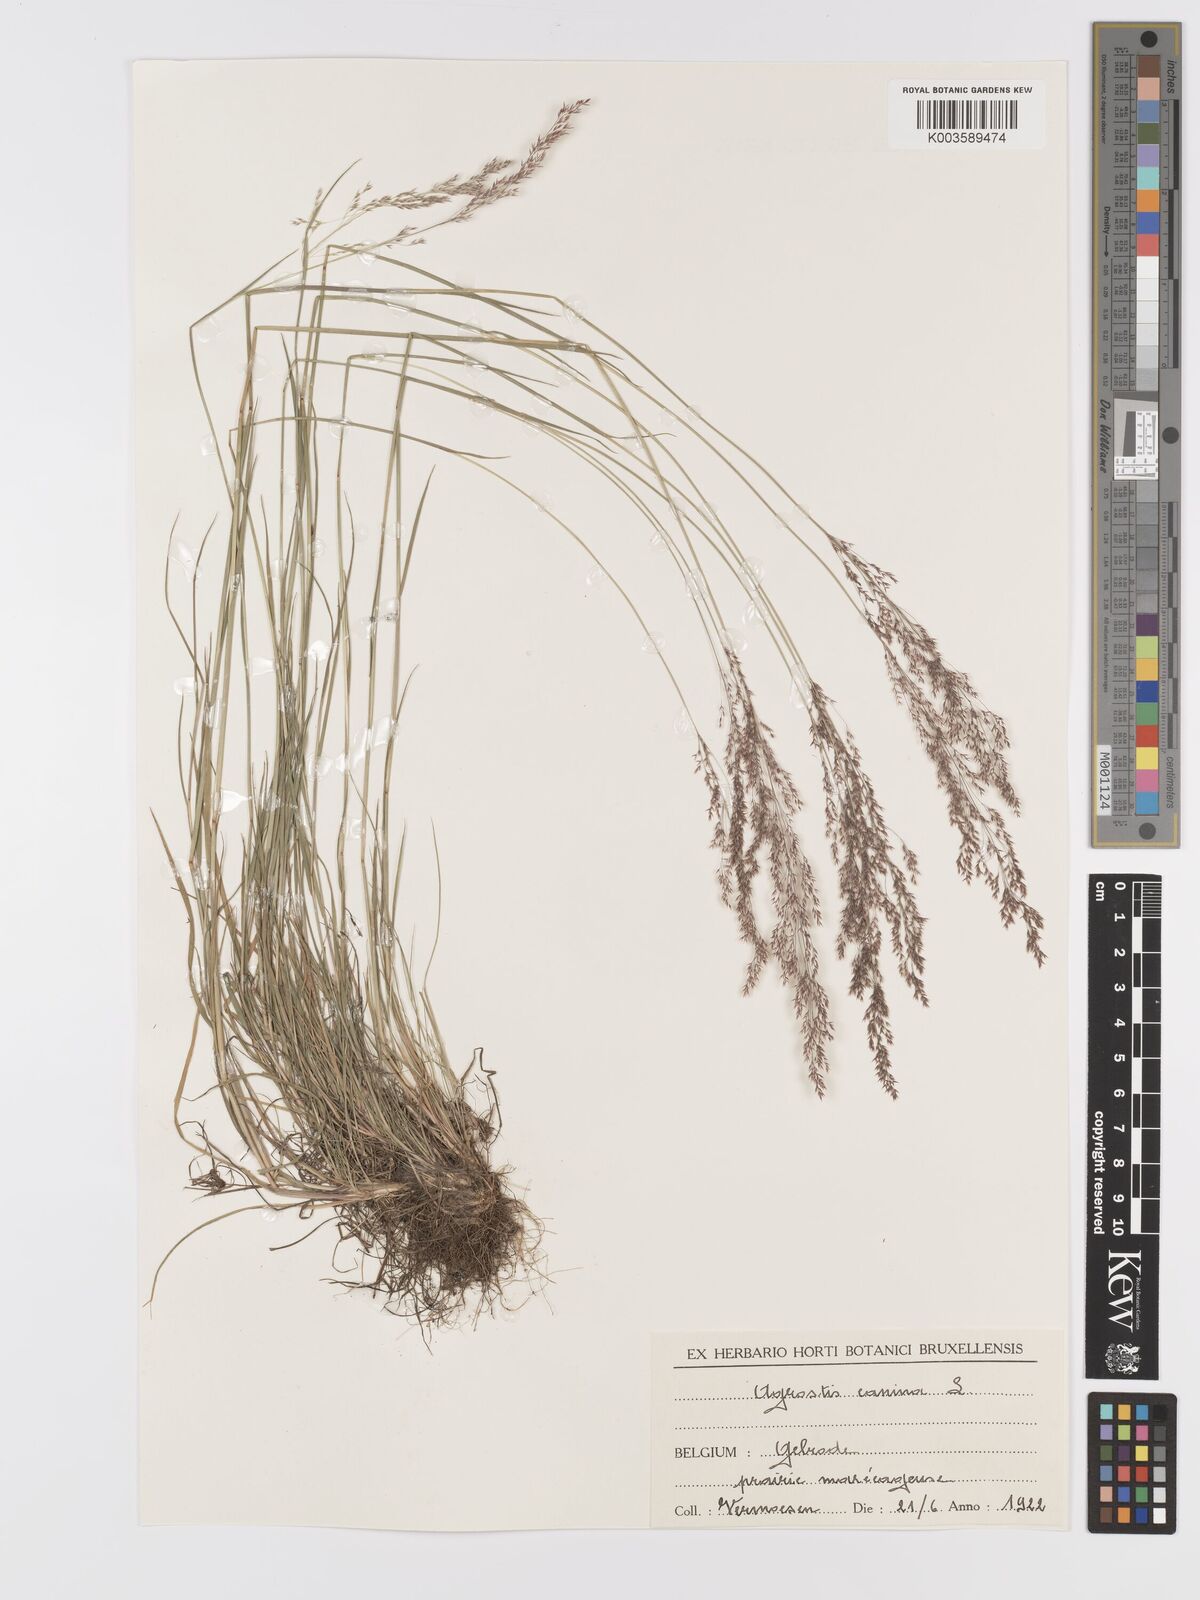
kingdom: Plantae
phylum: Tracheophyta
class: Liliopsida
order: Poales
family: Poaceae
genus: Agrostis
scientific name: Agrostis canina
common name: Velvet bent
